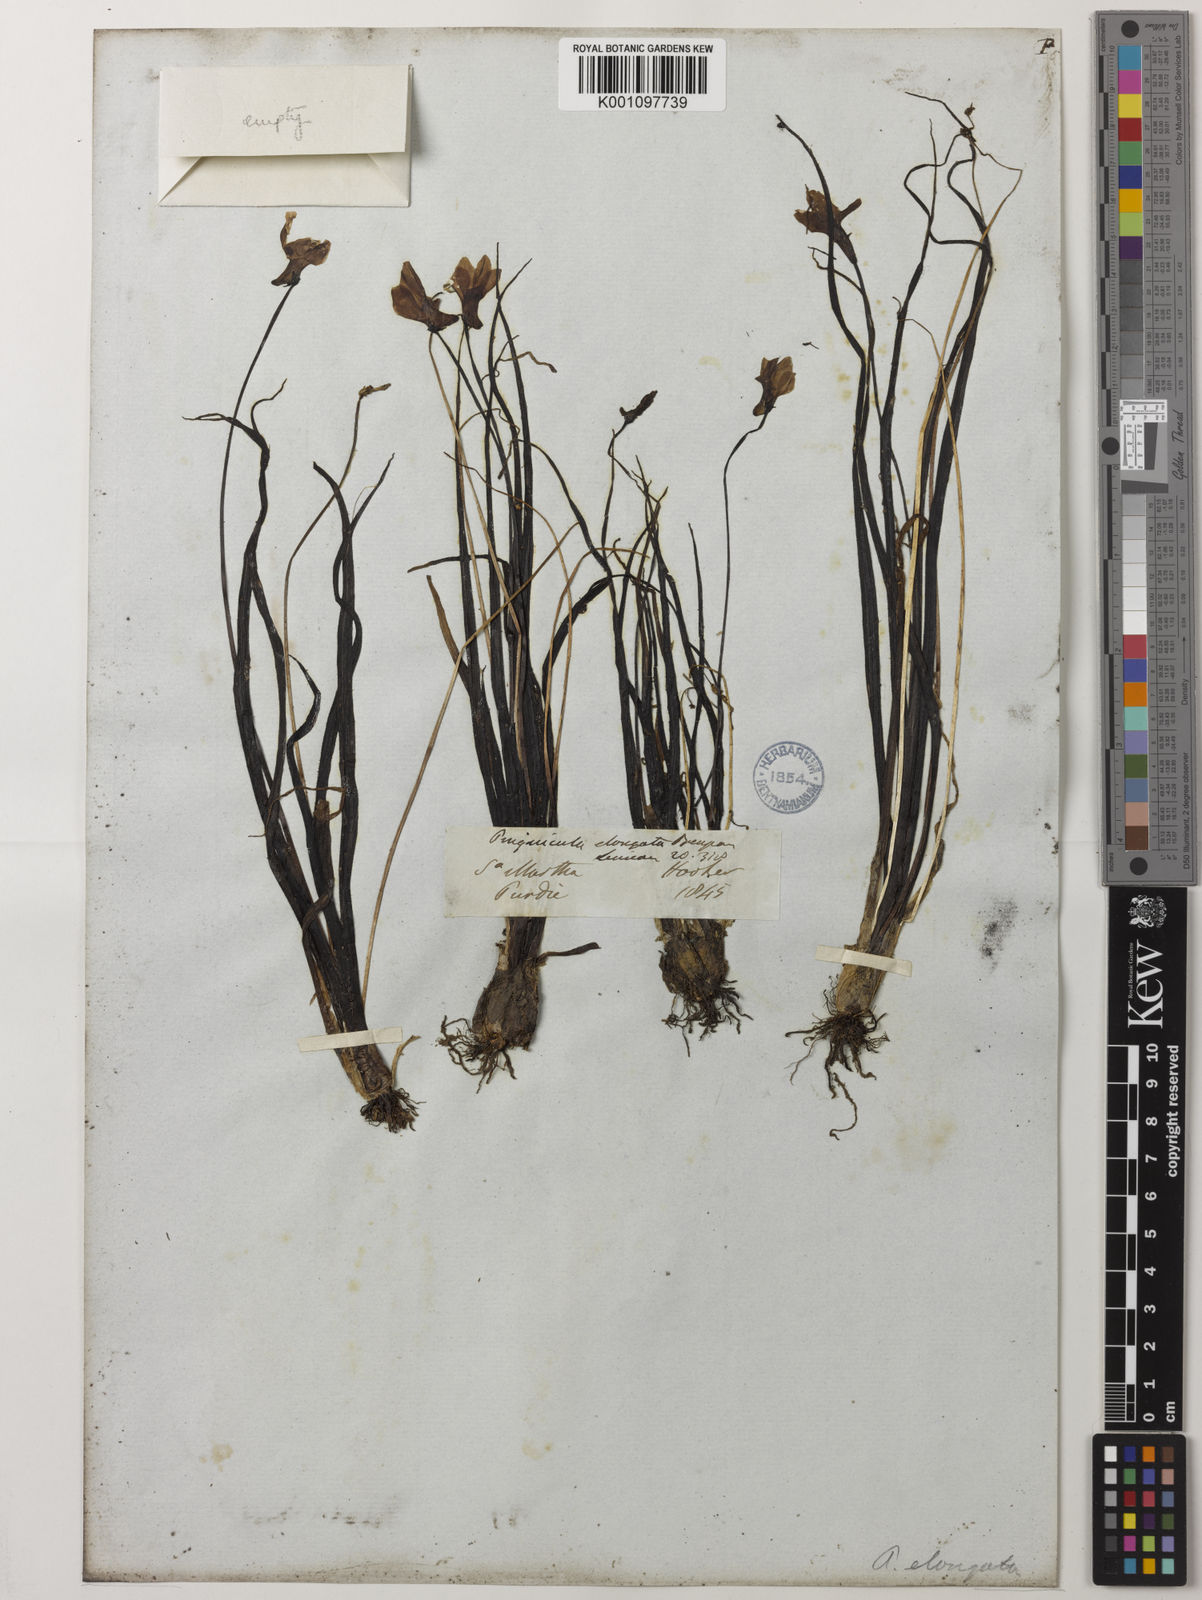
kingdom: Plantae
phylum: Tracheophyta
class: Magnoliopsida
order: Lamiales
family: Lentibulariaceae
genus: Pinguicula
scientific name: Pinguicula elongata
